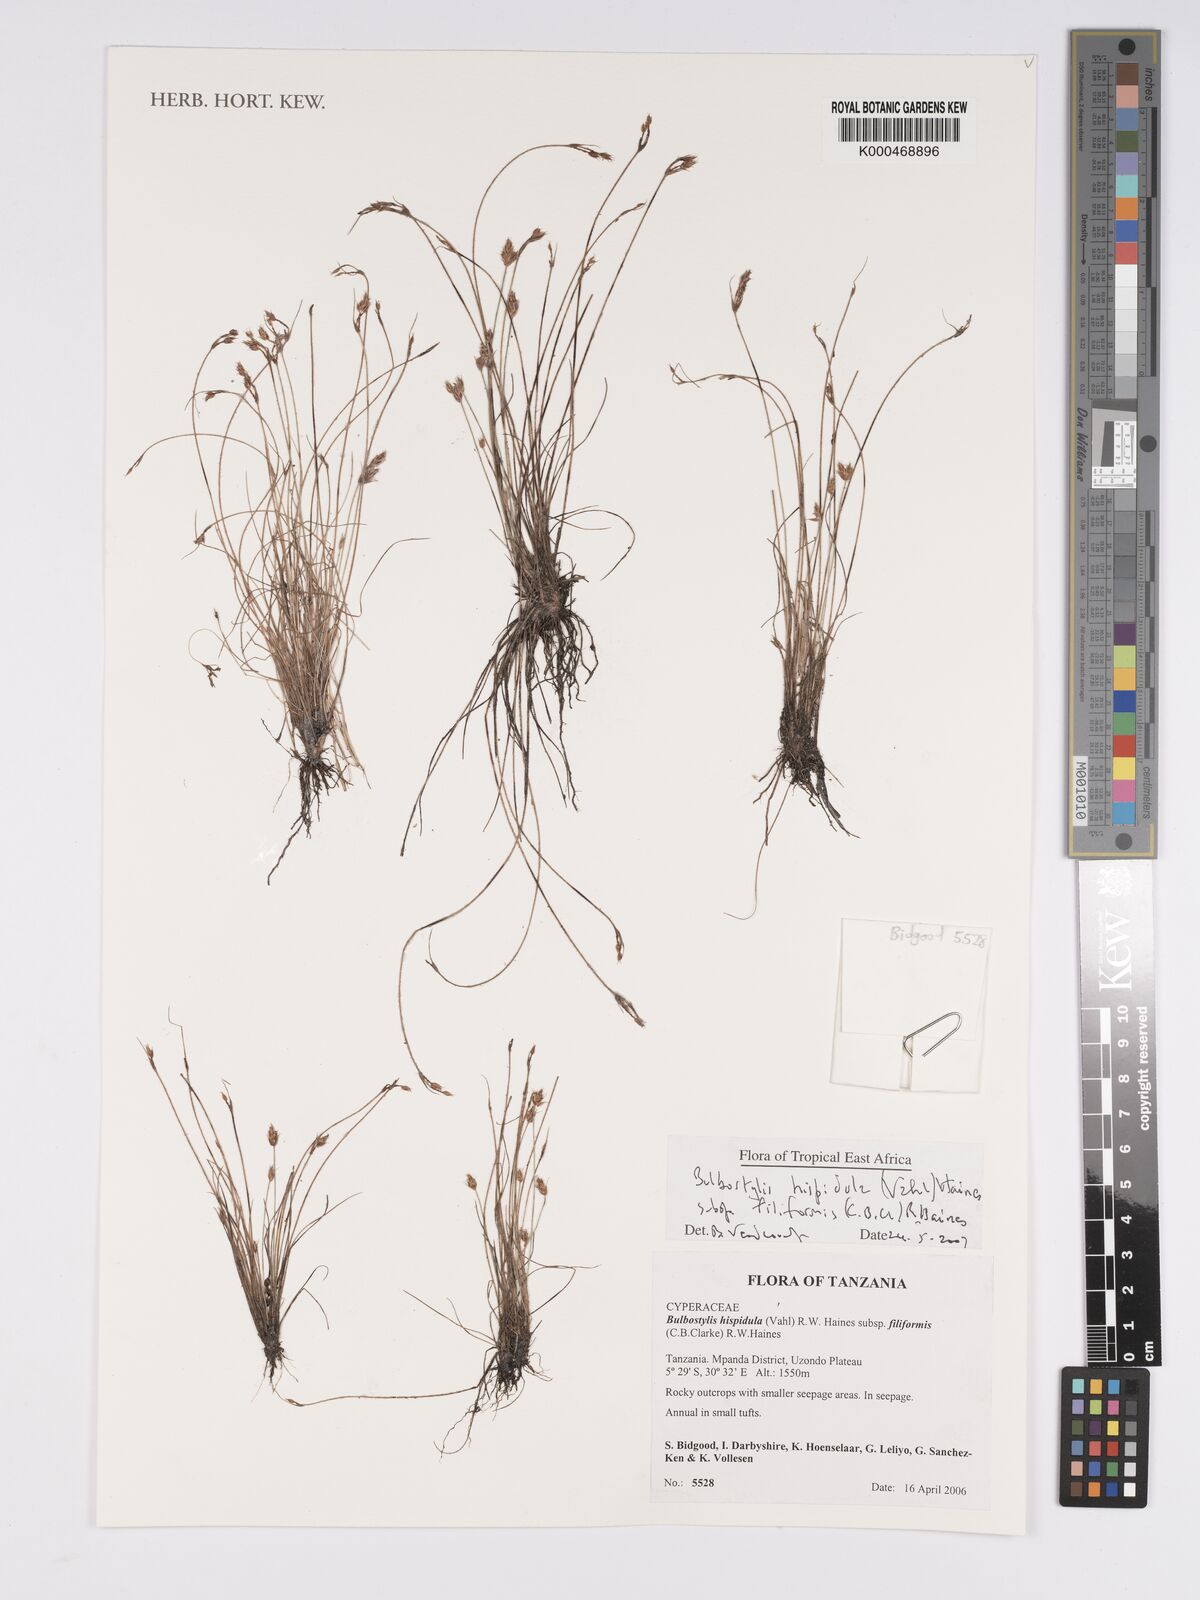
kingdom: Plantae
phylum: Tracheophyta
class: Liliopsida
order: Poales
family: Cyperaceae
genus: Bulbostylis
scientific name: Bulbostylis hispidula
